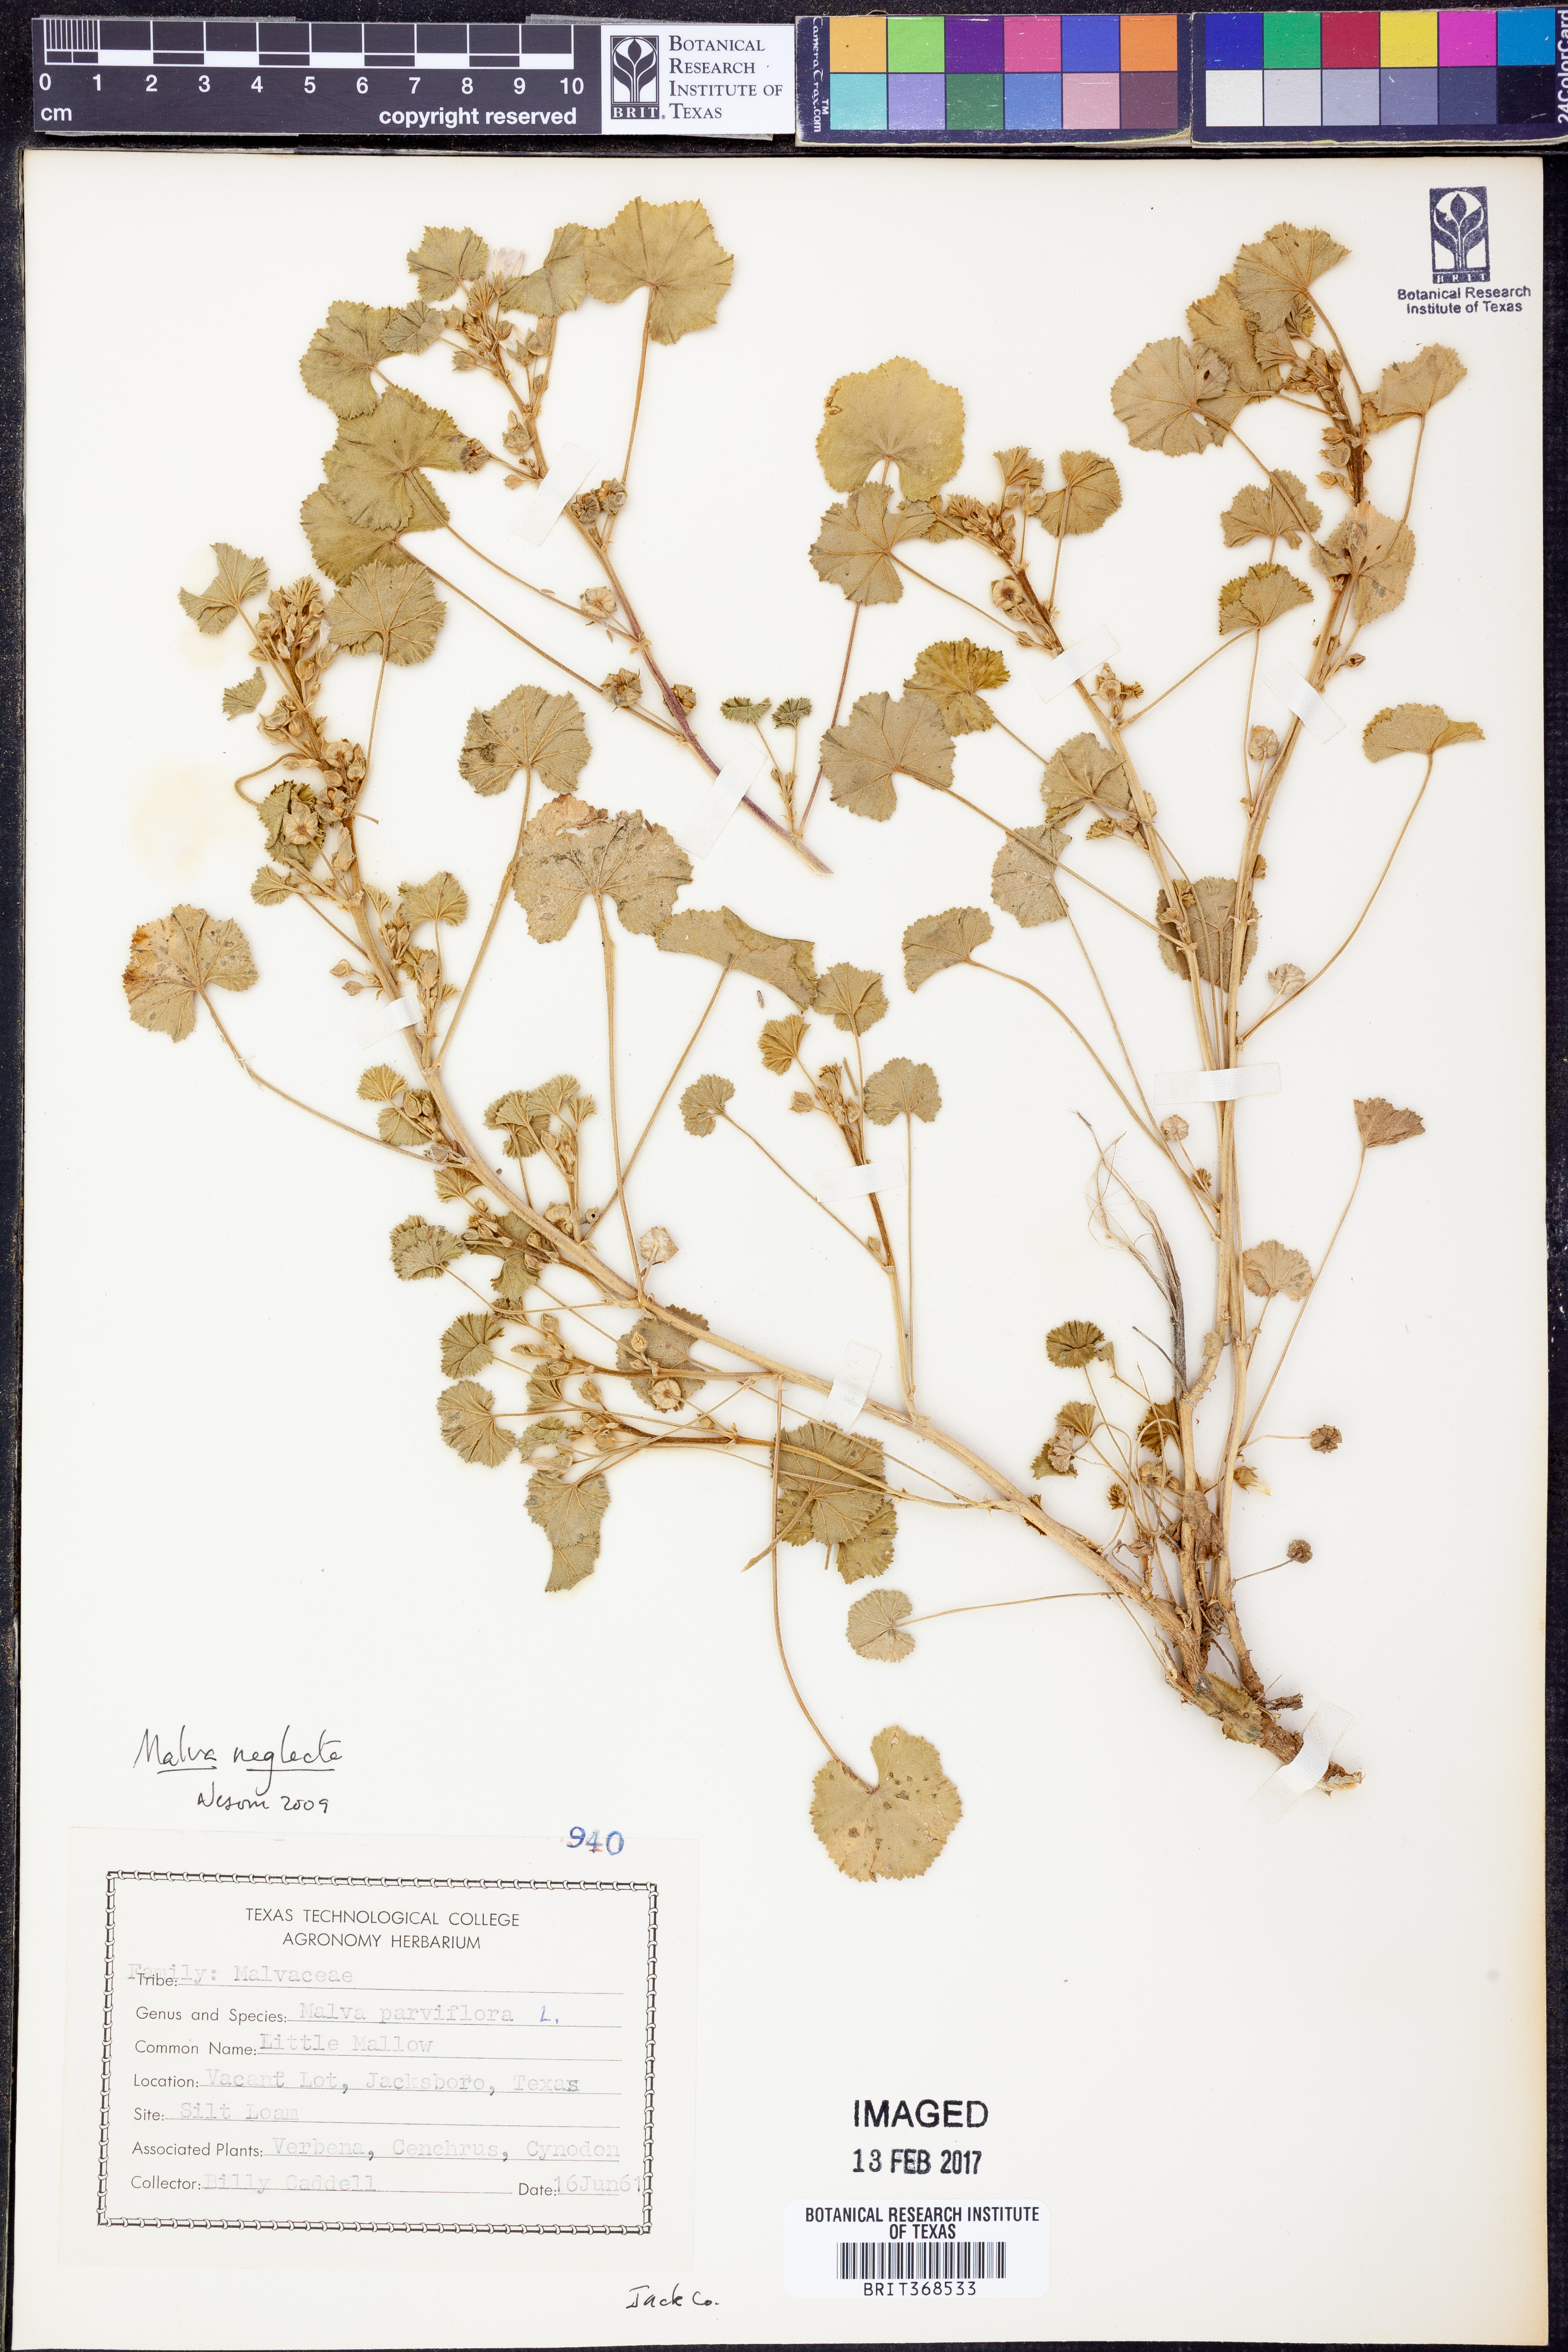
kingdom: Plantae
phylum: Tracheophyta
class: Magnoliopsida
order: Malvales
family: Malvaceae
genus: Malva
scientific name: Malva neglecta
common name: Common mallow
